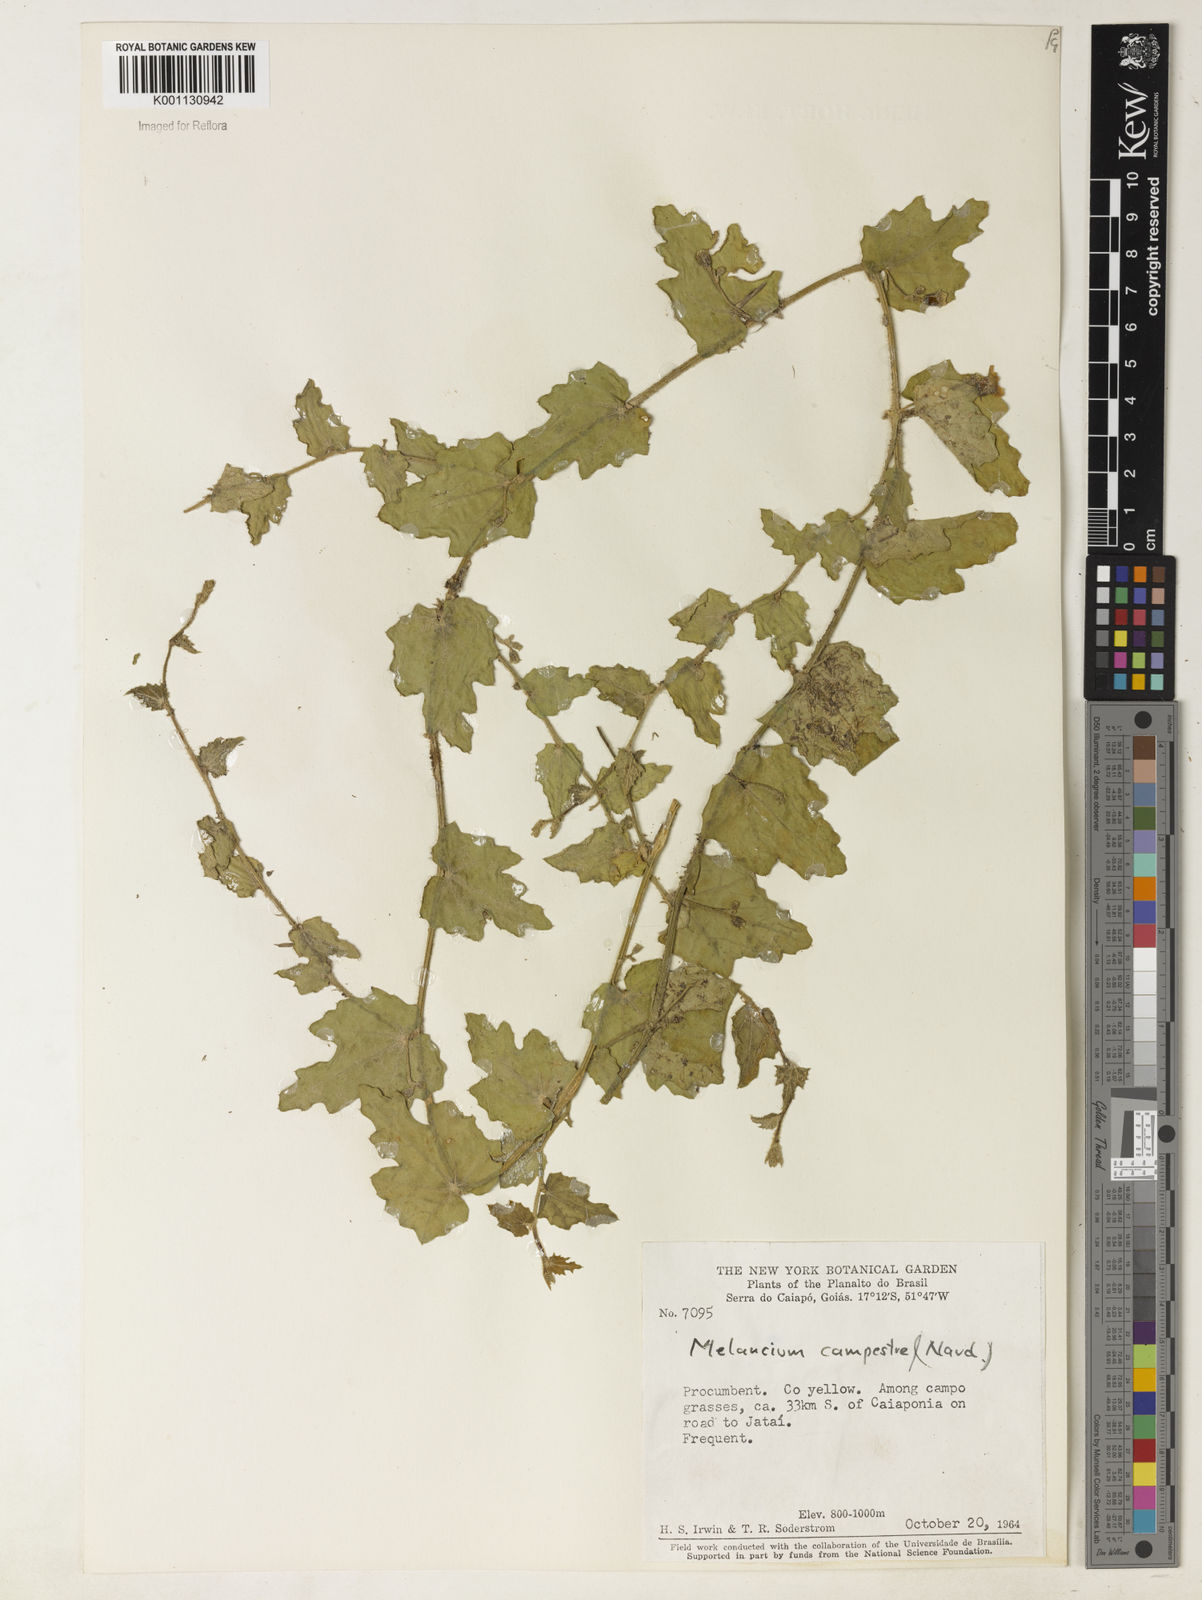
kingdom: Plantae
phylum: Tracheophyta
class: Magnoliopsida
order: Cucurbitales
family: Cucurbitaceae
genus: Melothria
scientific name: Melothria campestris
